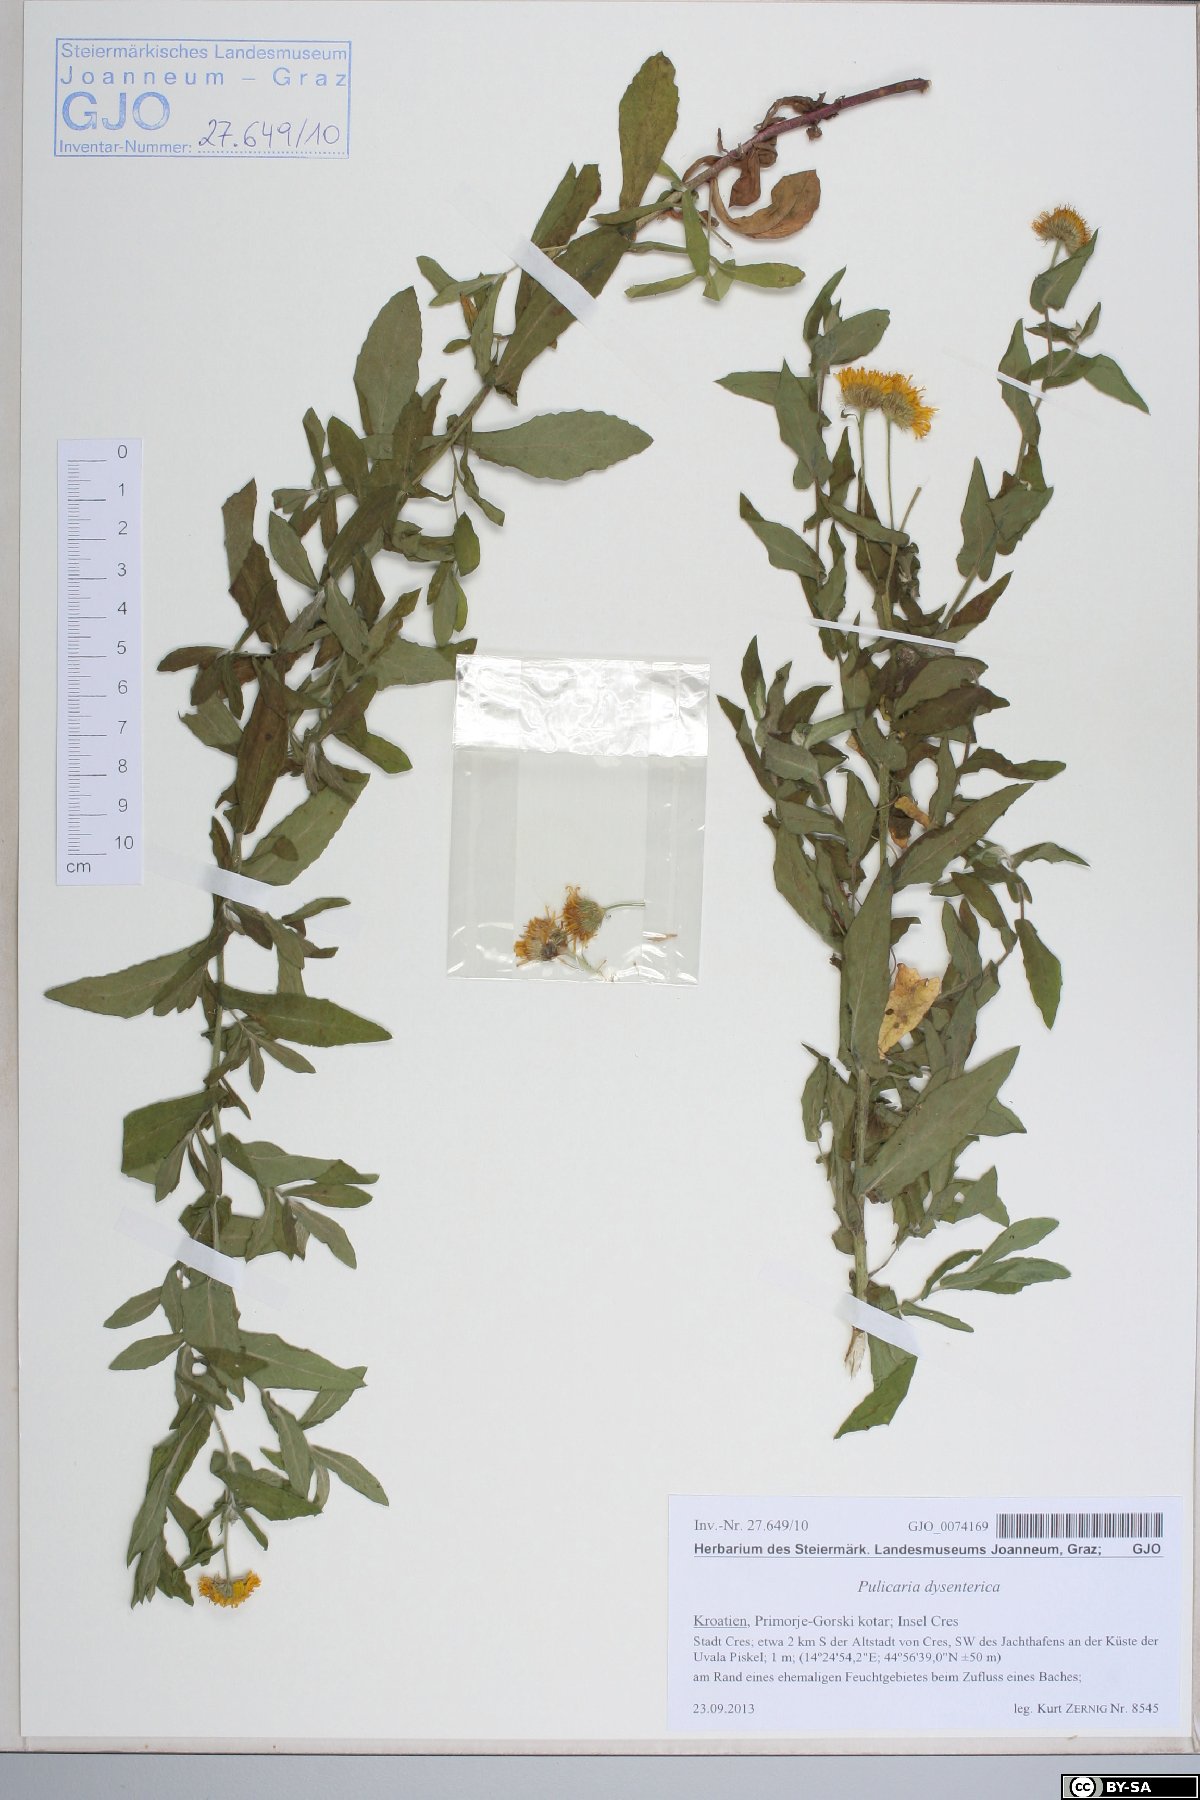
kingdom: Plantae
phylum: Tracheophyta
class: Magnoliopsida
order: Asterales
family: Asteraceae
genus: Pulicaria
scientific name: Pulicaria dysenterica
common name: Common fleabane
